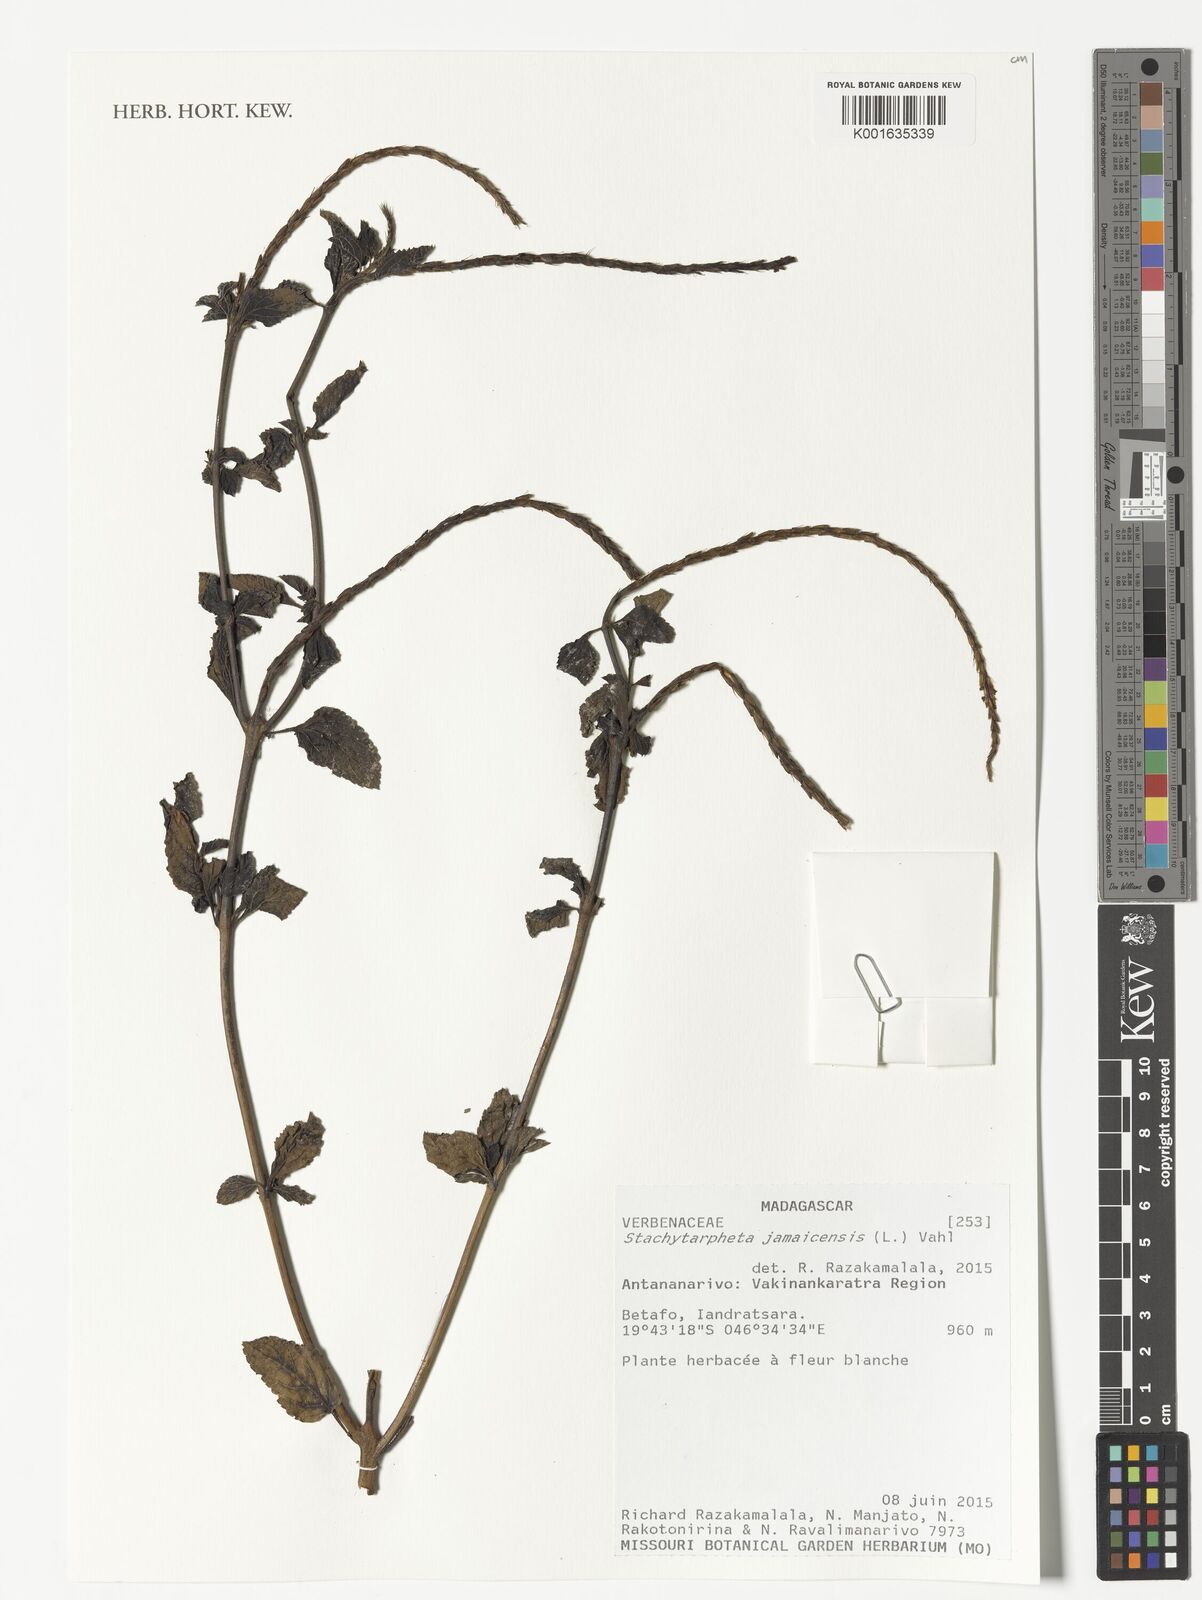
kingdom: Plantae
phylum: Tracheophyta
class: Magnoliopsida
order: Lamiales
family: Verbenaceae
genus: Stachytarpheta
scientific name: Stachytarpheta jamaicensis
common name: Light-blue snakeweed
